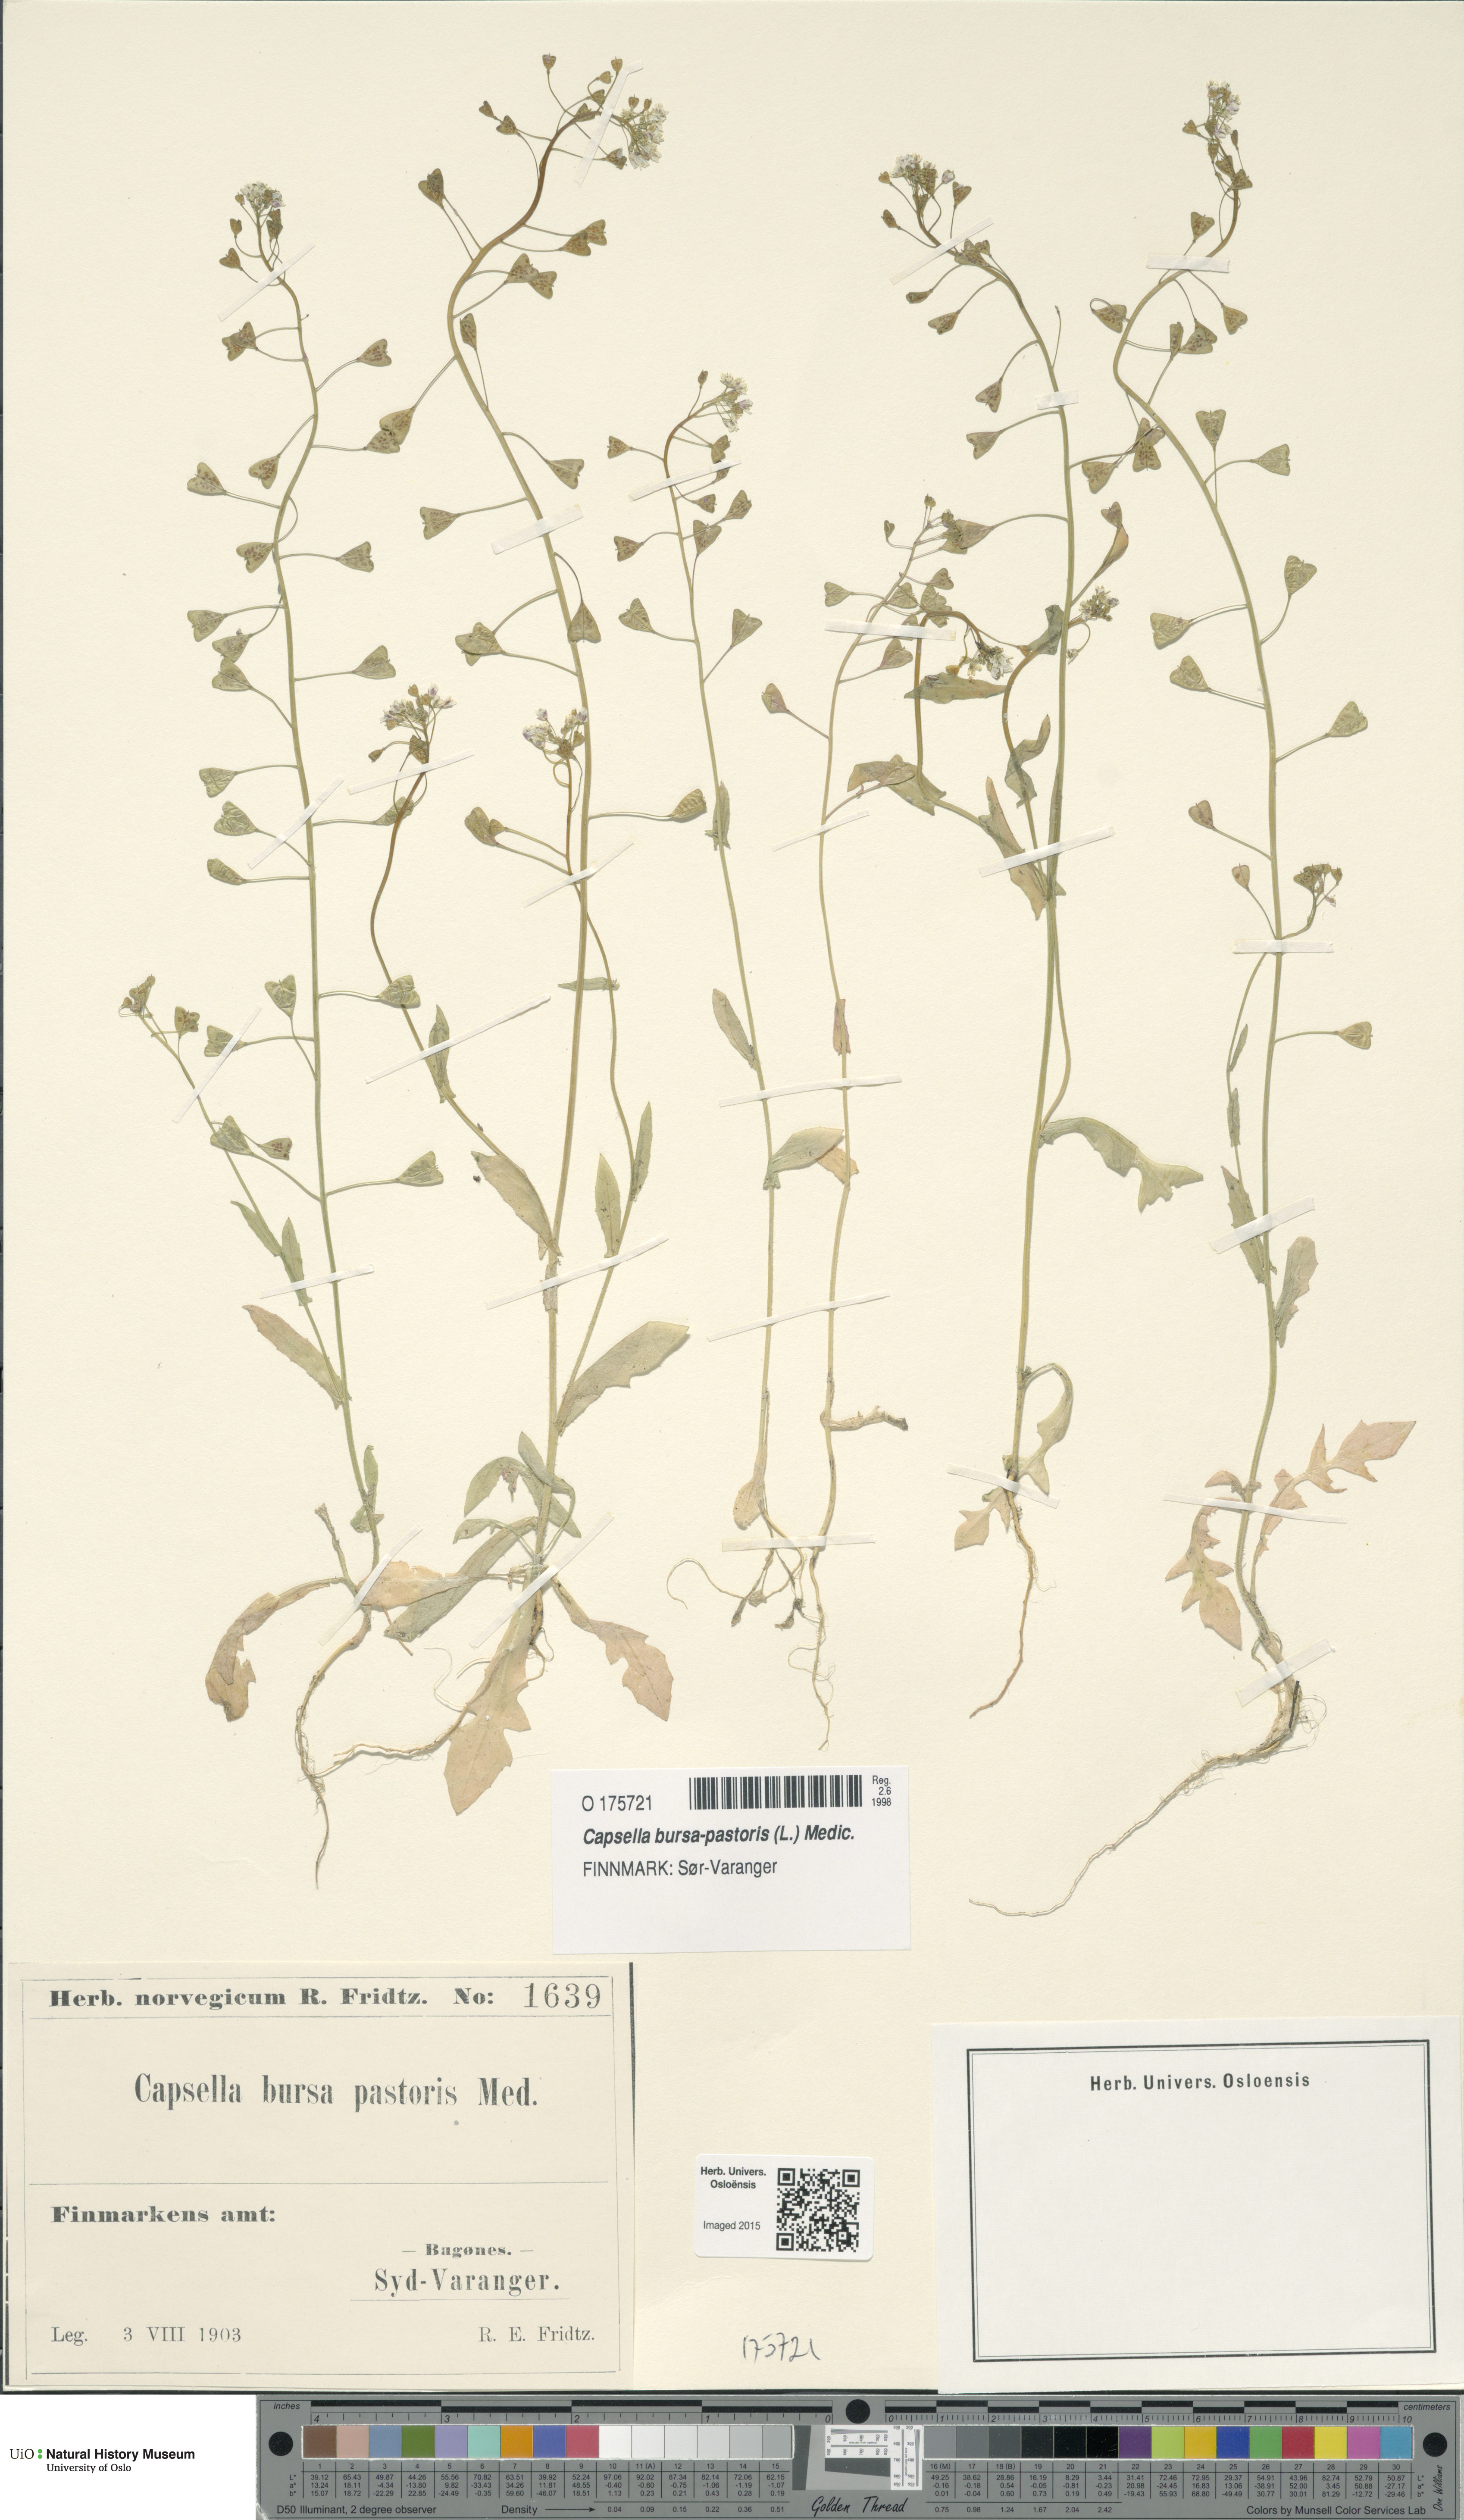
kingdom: Plantae
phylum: Tracheophyta
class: Magnoliopsida
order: Brassicales
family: Brassicaceae
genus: Capsella
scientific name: Capsella bursa-pastoris
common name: Shepherd's purse
